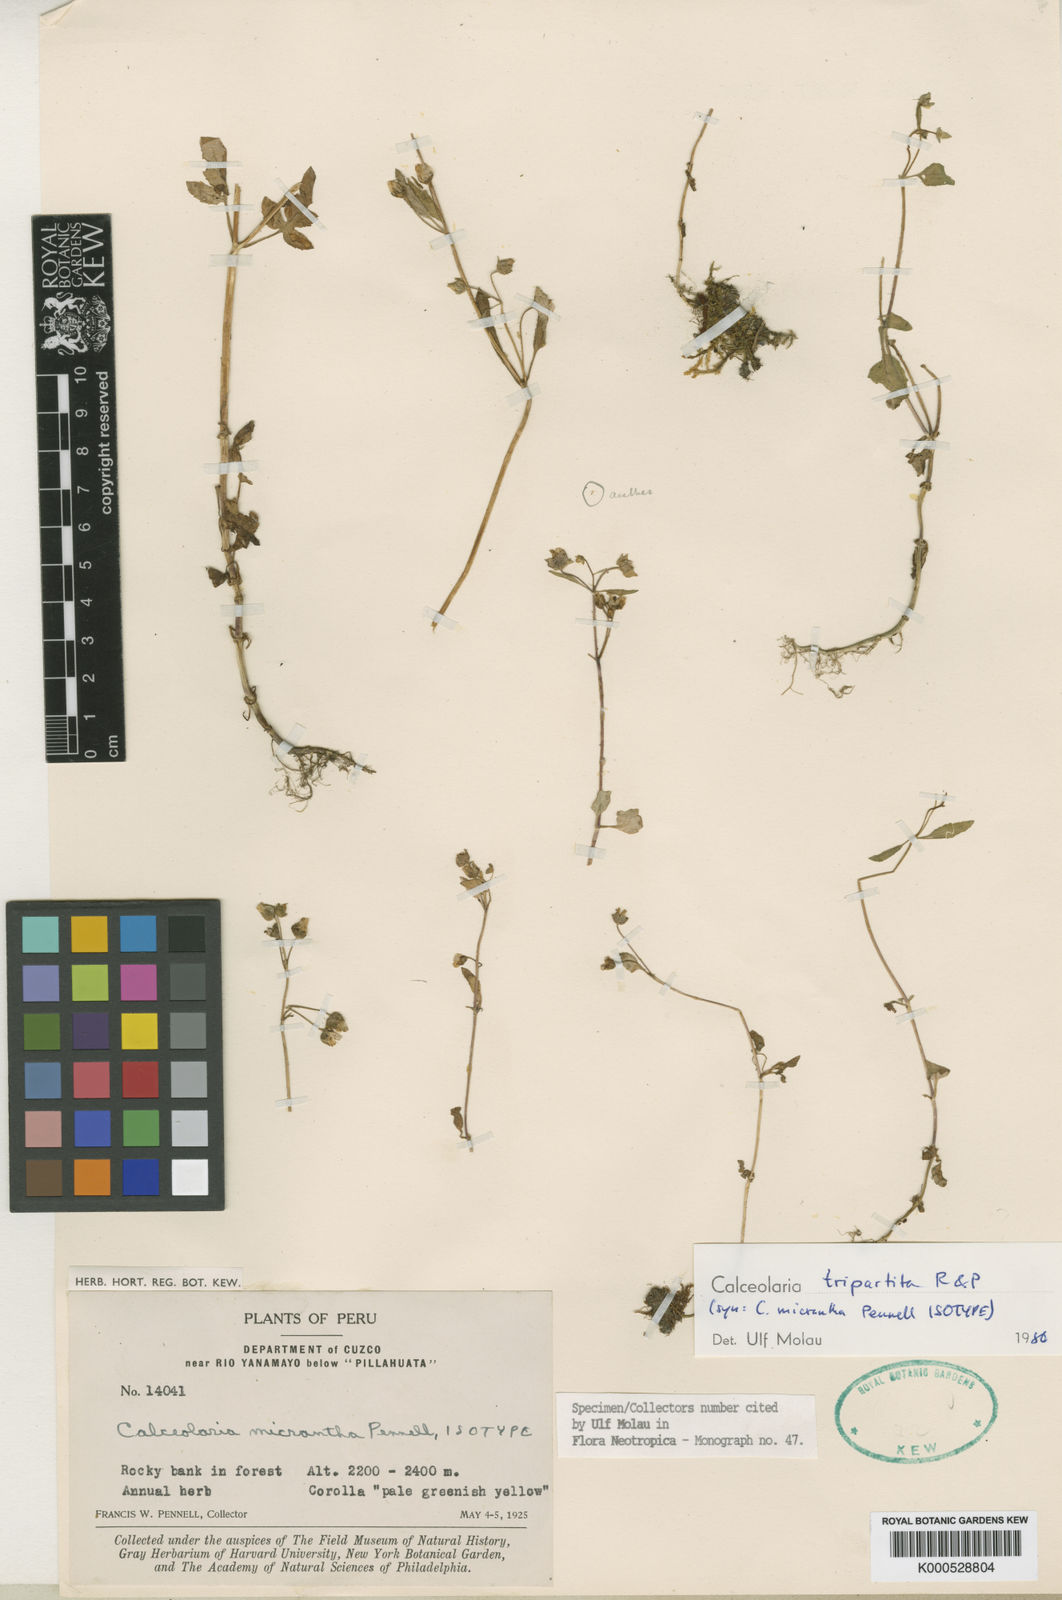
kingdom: Plantae
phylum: Tracheophyta
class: Magnoliopsida
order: Lamiales
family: Calceolariaceae
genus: Calceolaria
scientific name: Calceolaria tripartita
